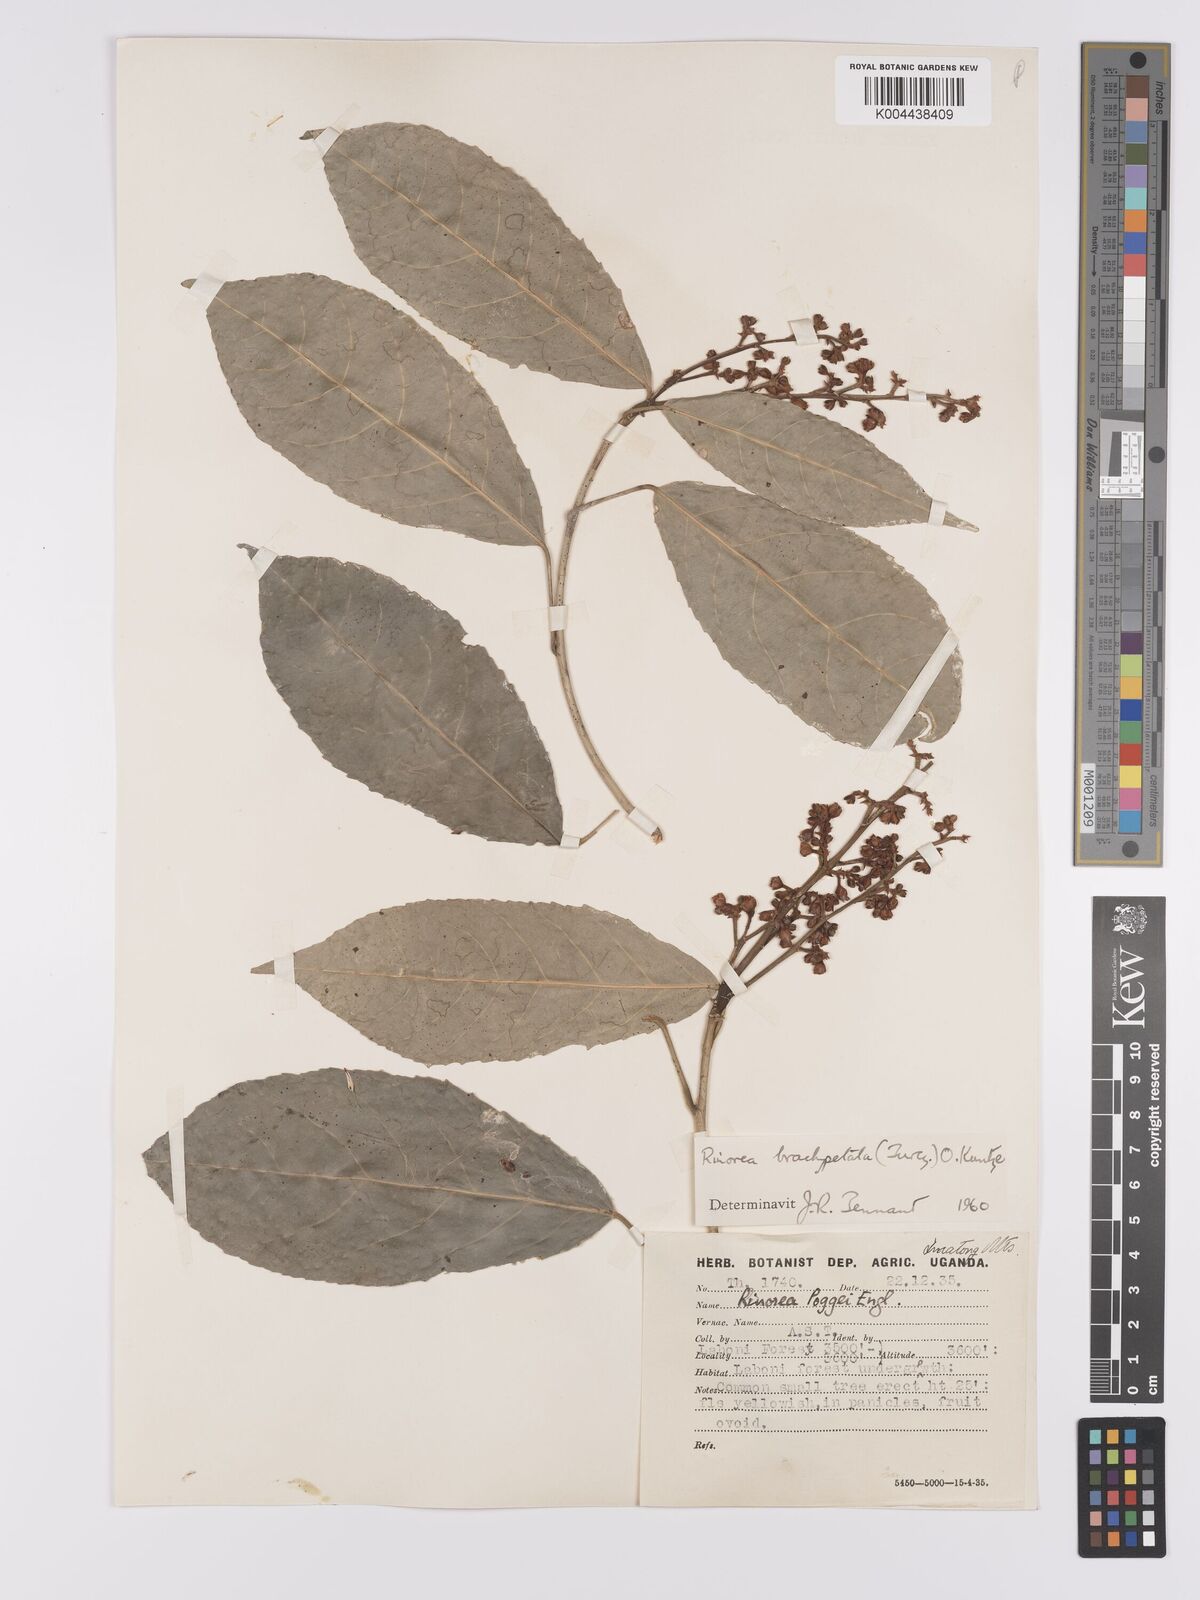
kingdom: Plantae
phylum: Tracheophyta
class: Magnoliopsida
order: Malpighiales
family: Violaceae
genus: Rinorea
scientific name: Rinorea brachypetala
